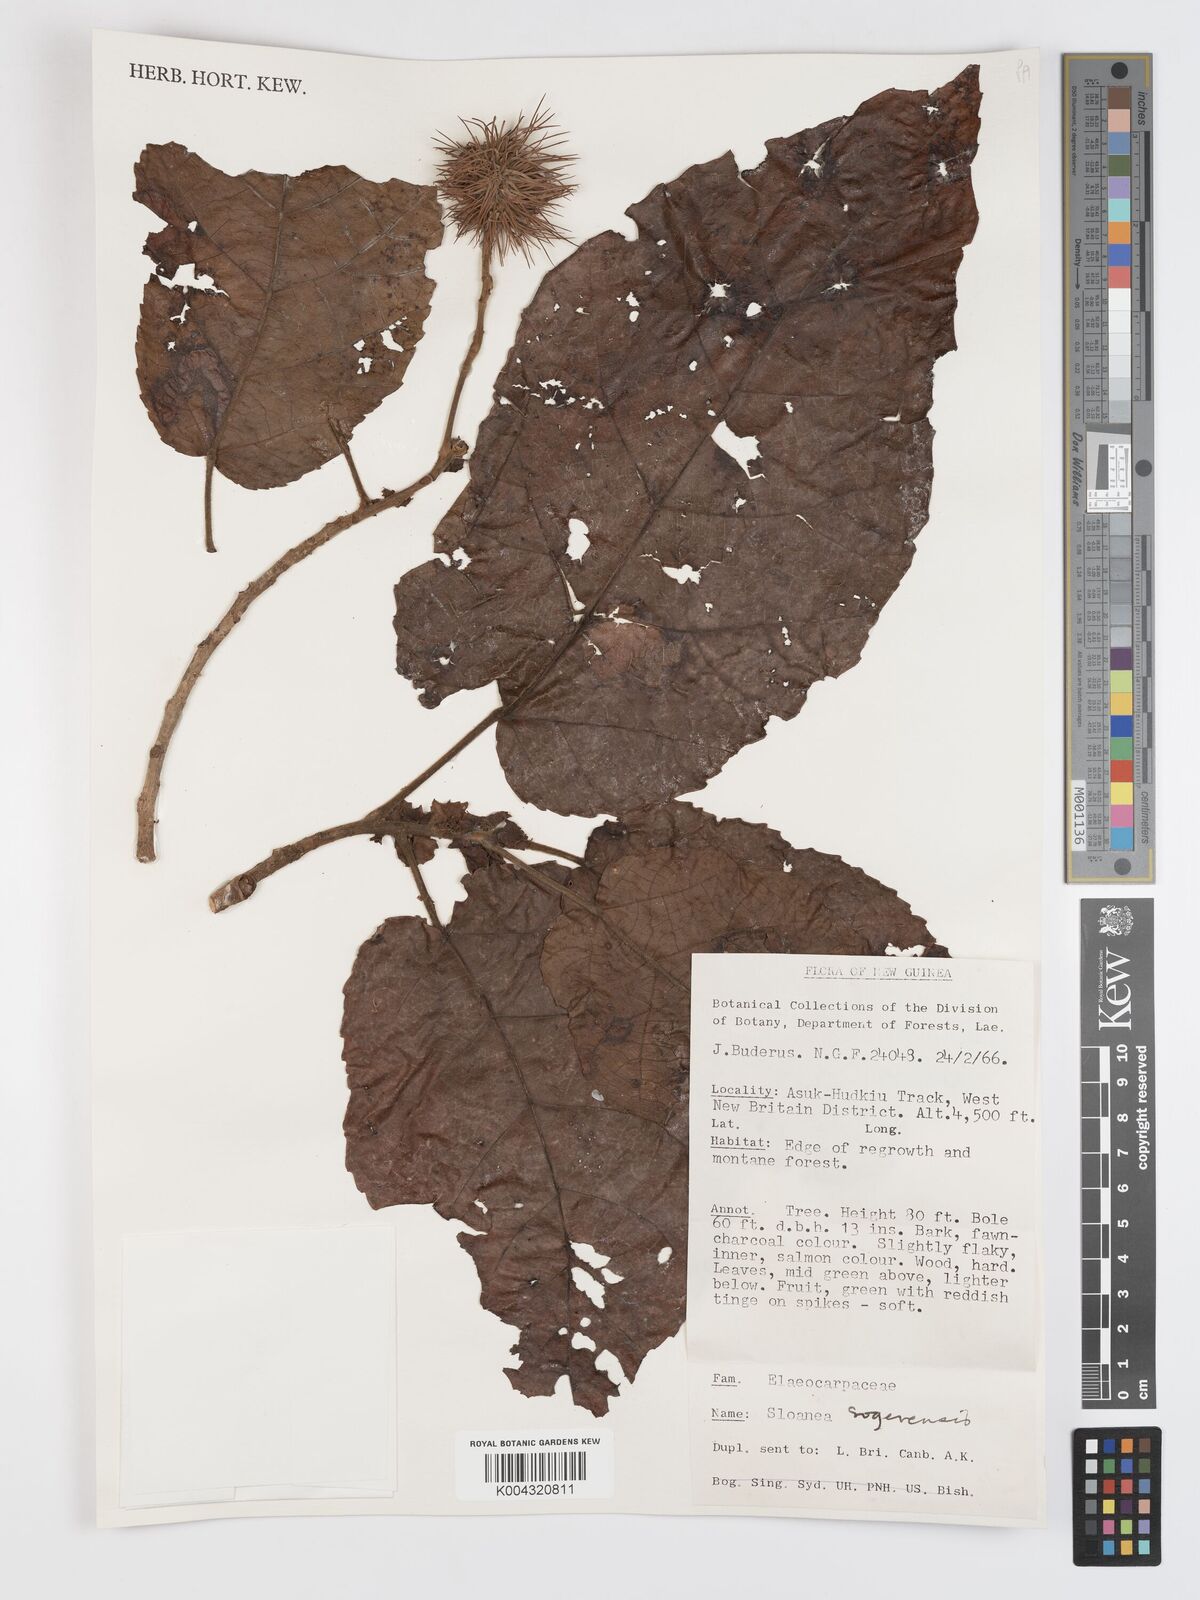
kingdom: Plantae
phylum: Tracheophyta
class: Magnoliopsida
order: Oxalidales
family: Elaeocarpaceae
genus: Sloanea
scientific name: Sloanea sogerensis
